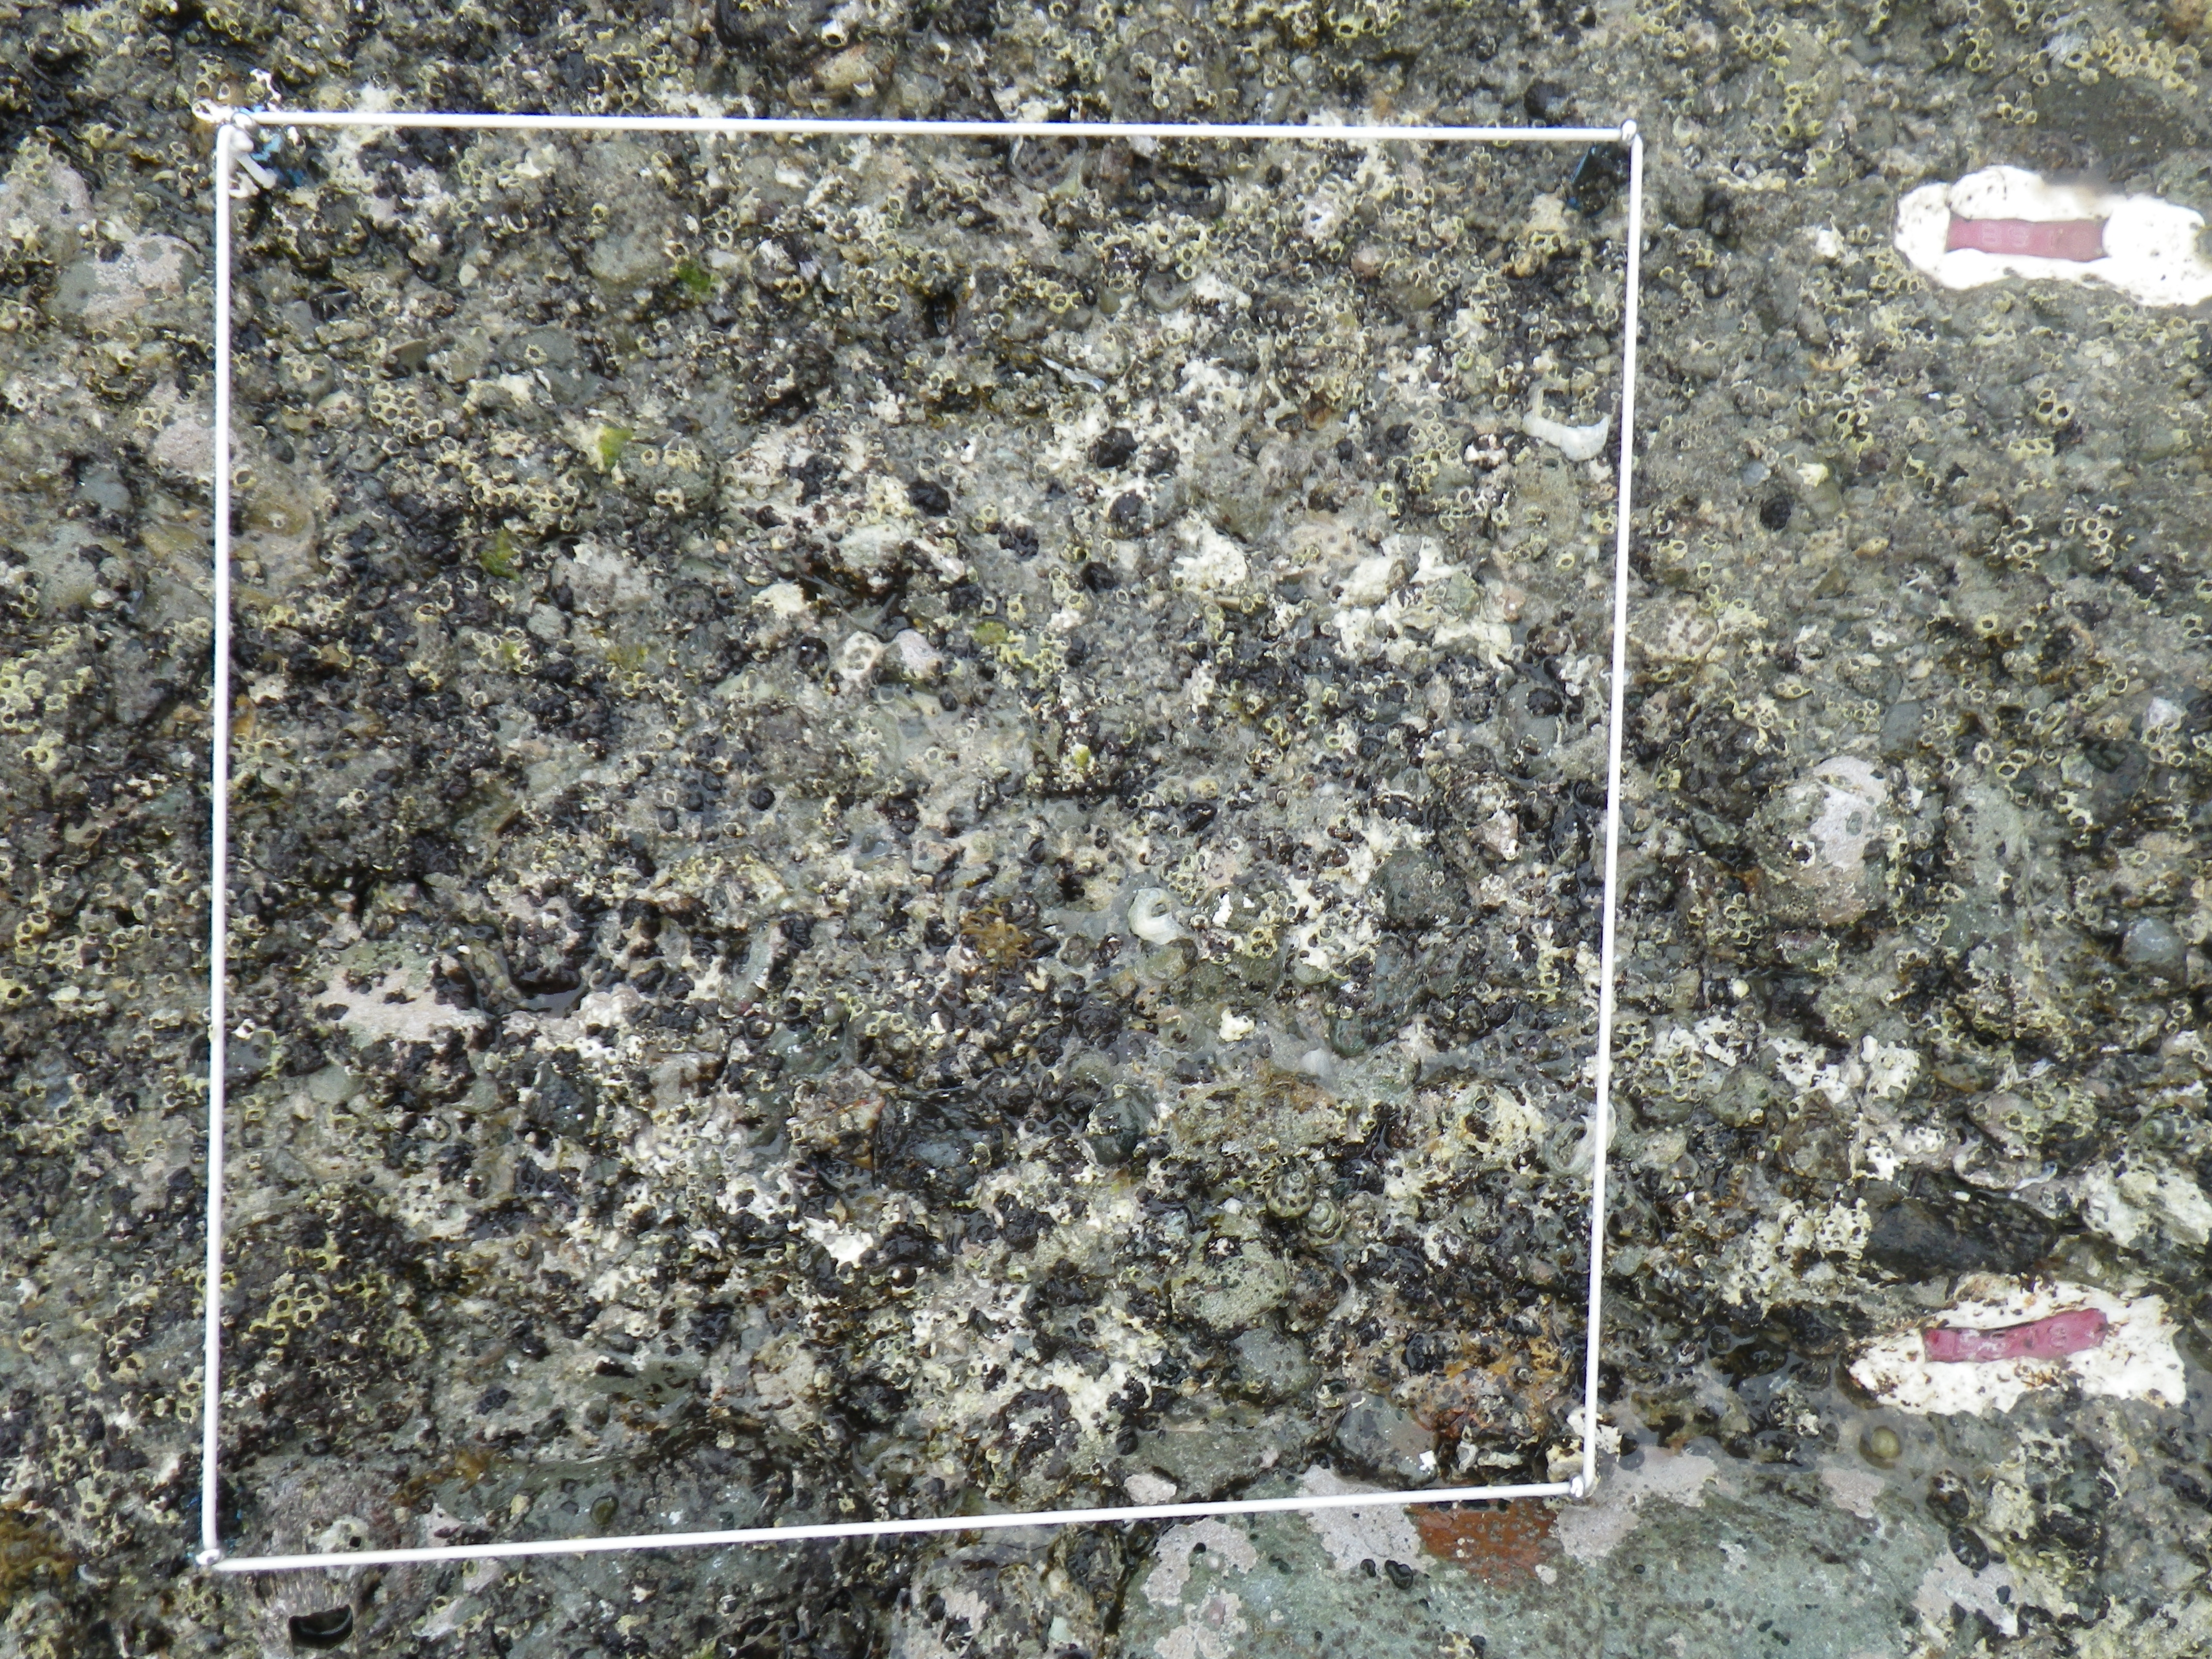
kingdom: Animalia
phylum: Arthropoda
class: Maxillopoda
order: Sessilia
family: Chthamalidae
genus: Chthamalus
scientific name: Chthamalus challengeri
